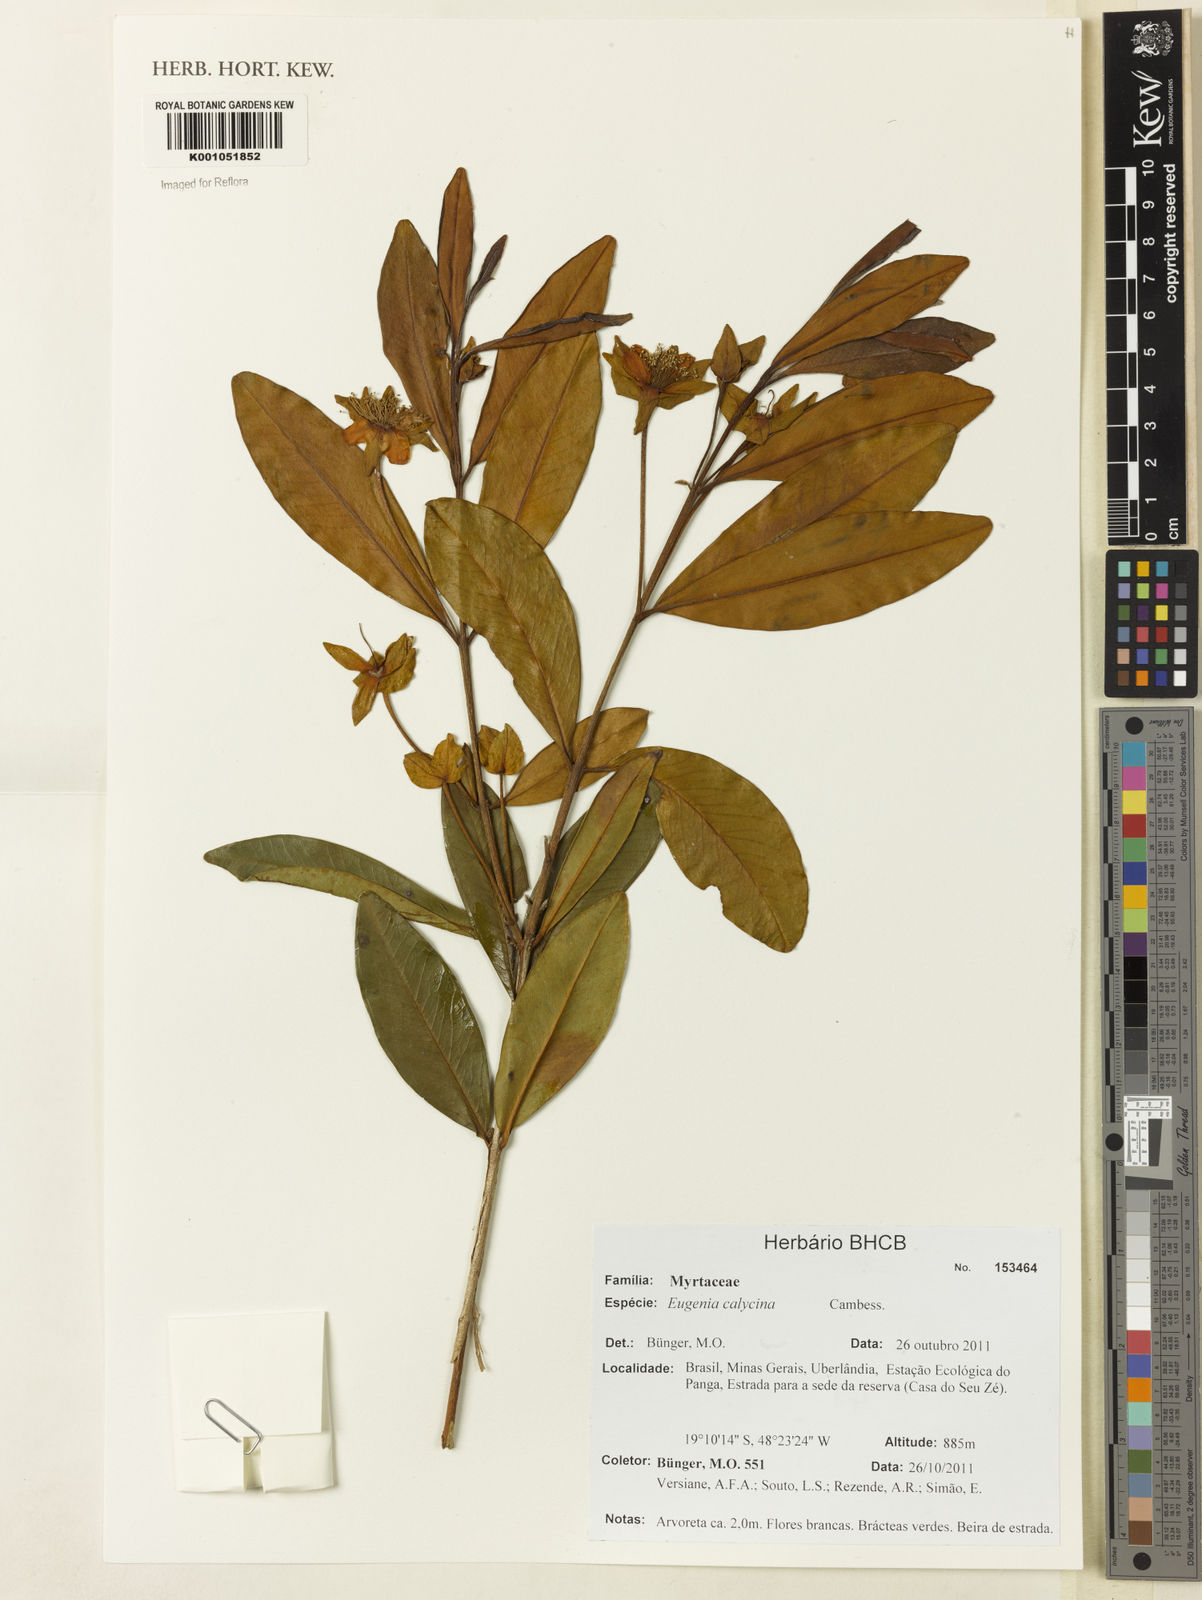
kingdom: Plantae
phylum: Tracheophyta
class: Magnoliopsida
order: Myrtales
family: Myrtaceae
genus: Eugenia
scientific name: Eugenia calycina
